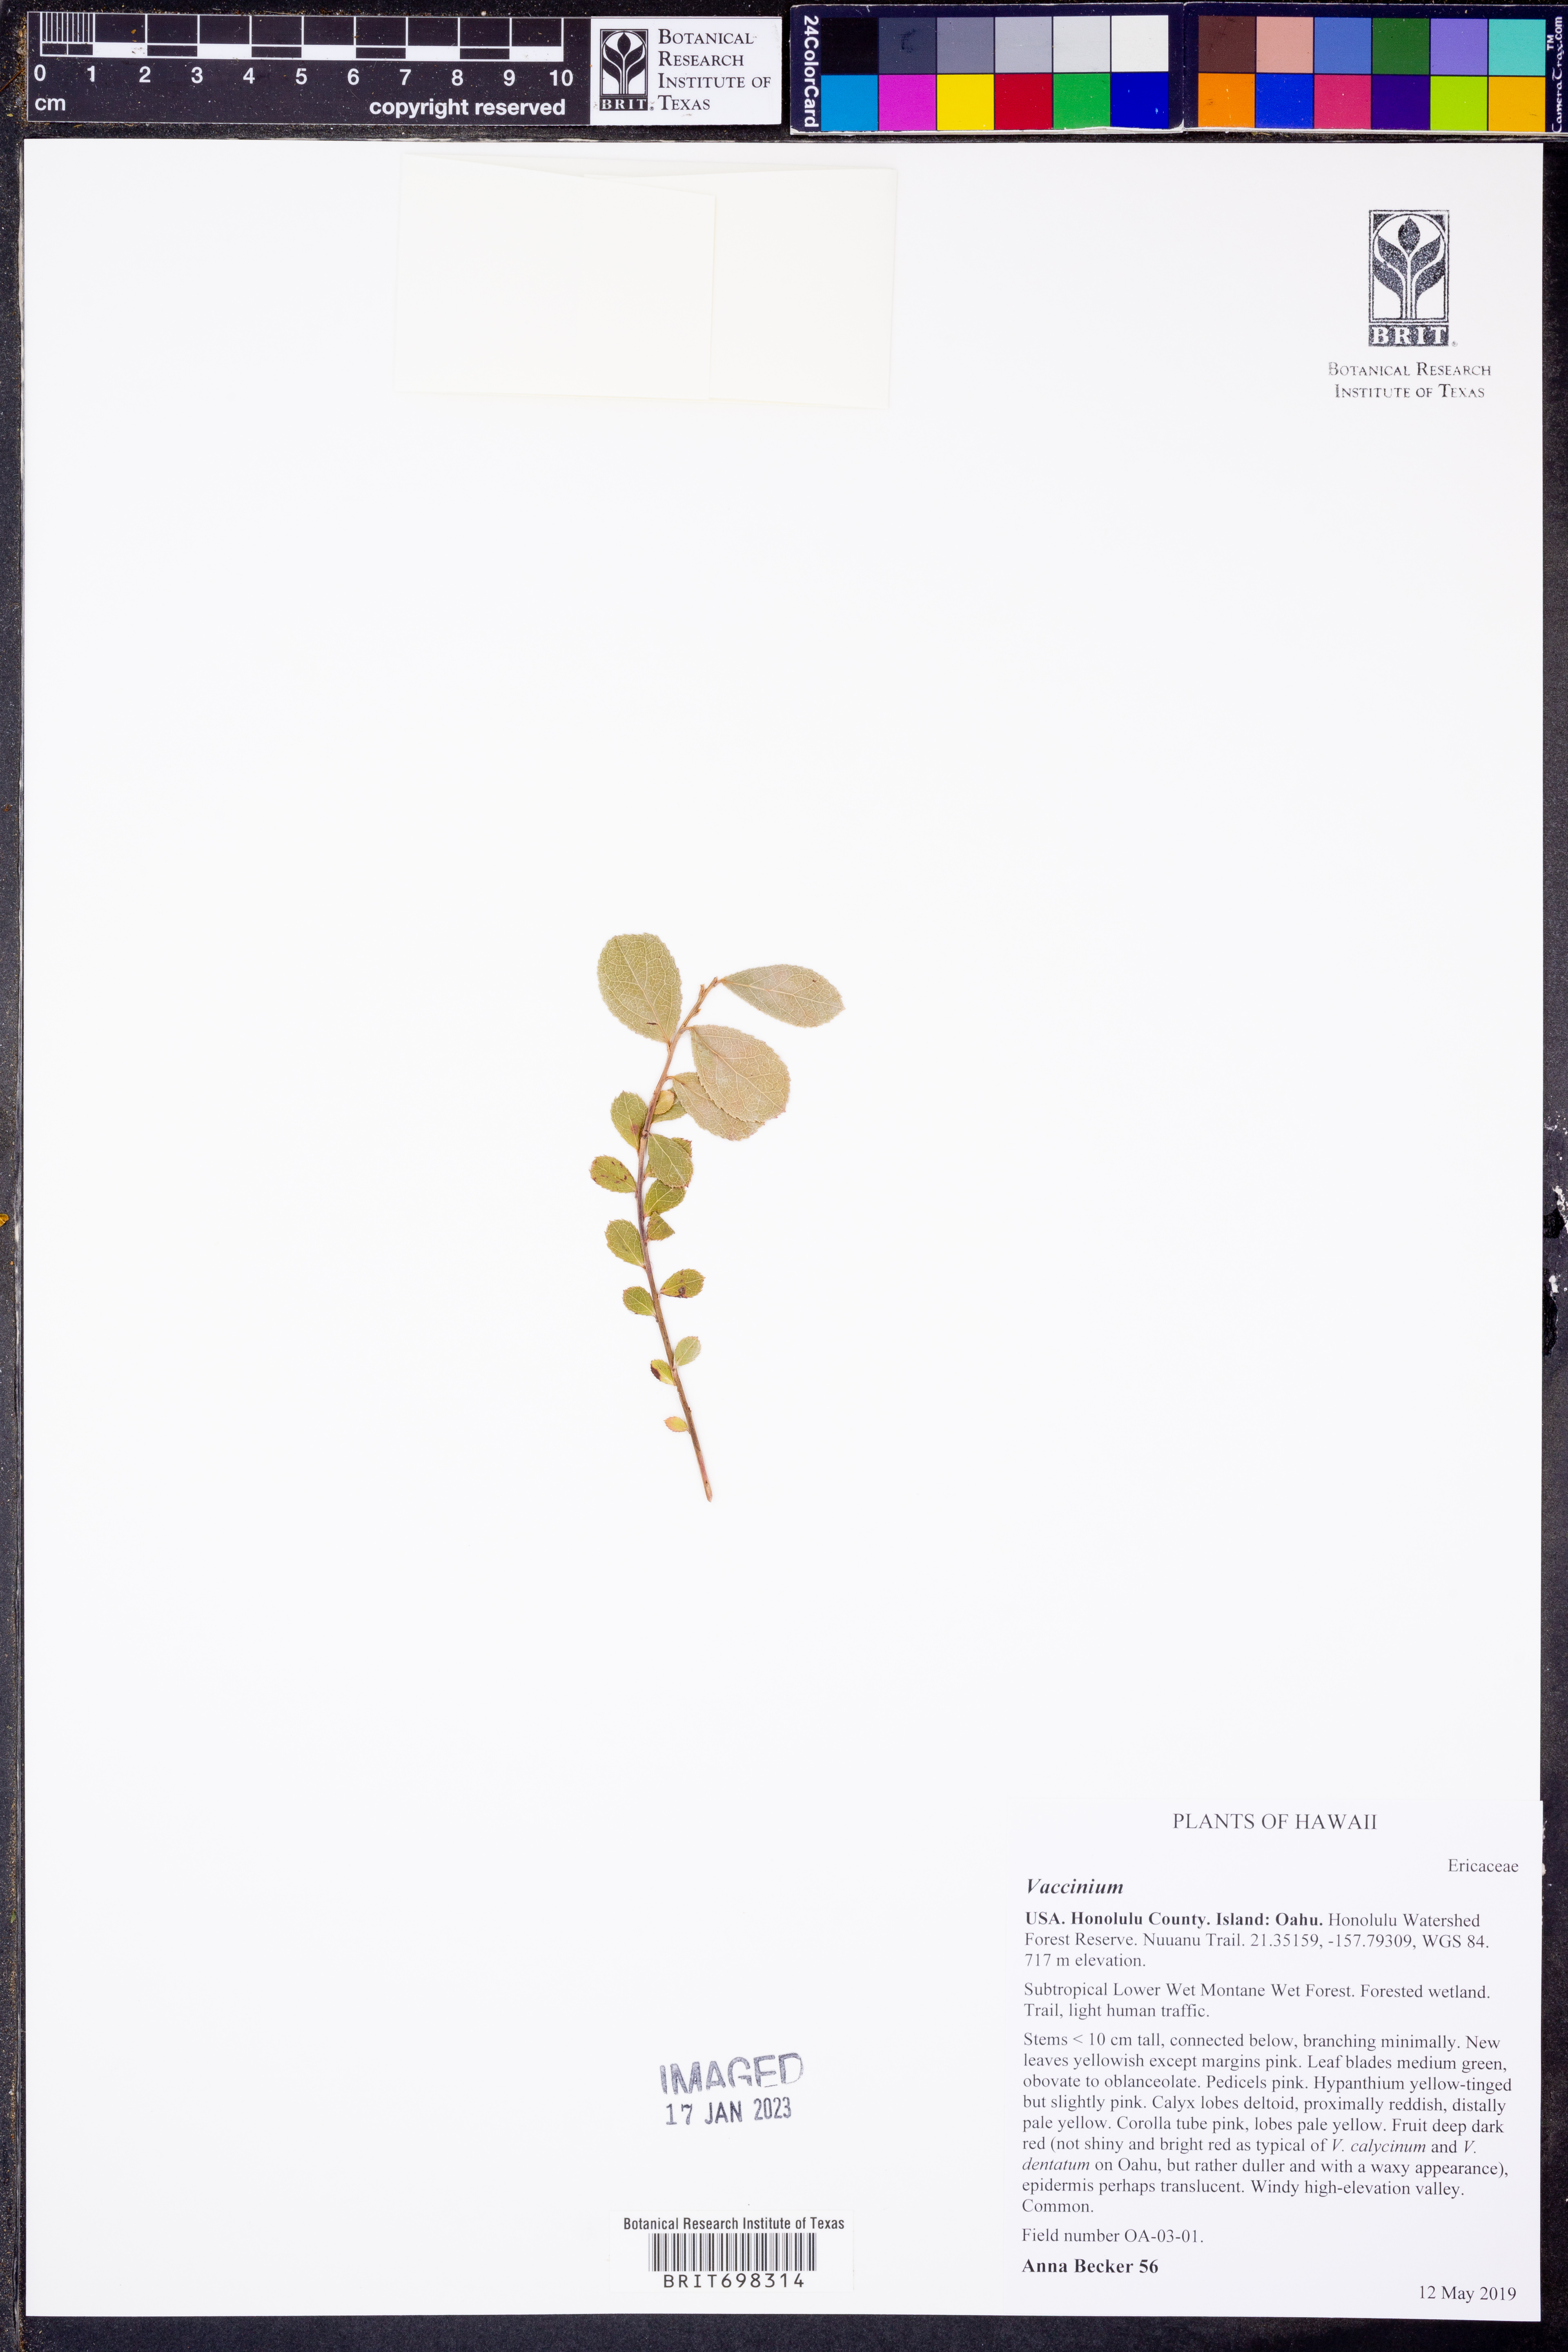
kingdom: Plantae
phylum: Tracheophyta
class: Magnoliopsida
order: Ericales
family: Ericaceae
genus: Vaccinium
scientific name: Vaccinium
